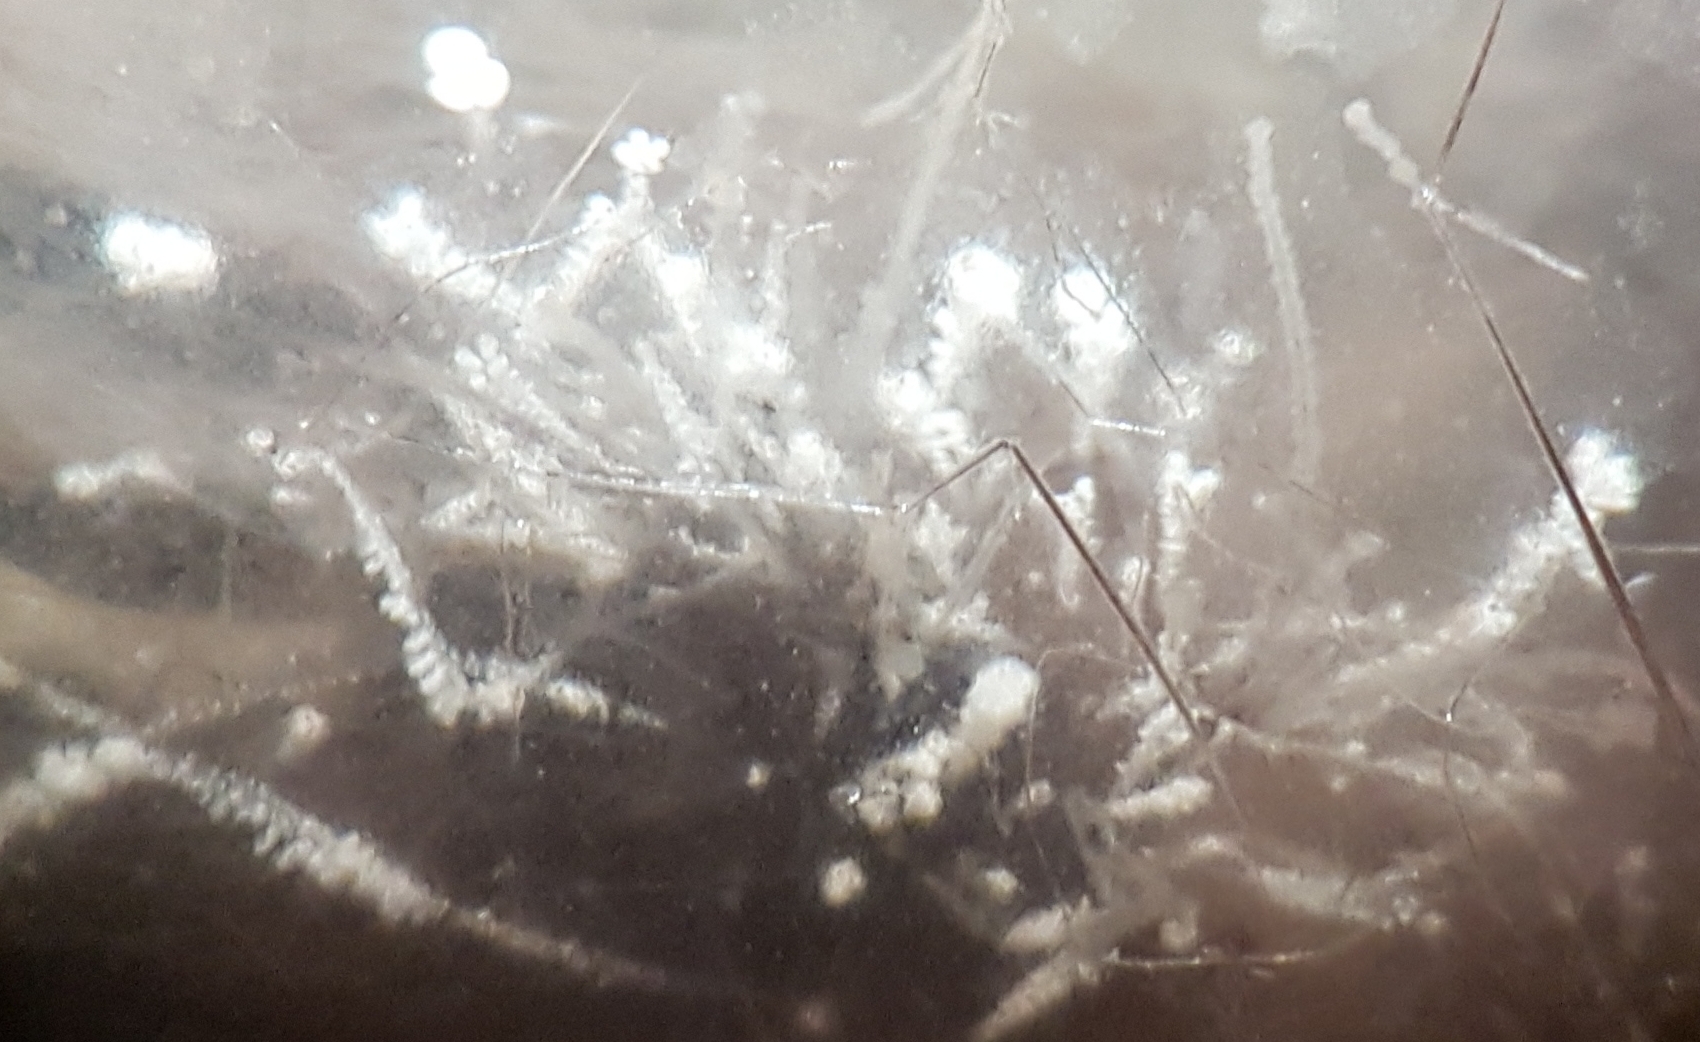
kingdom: Fungi
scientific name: Fungi
